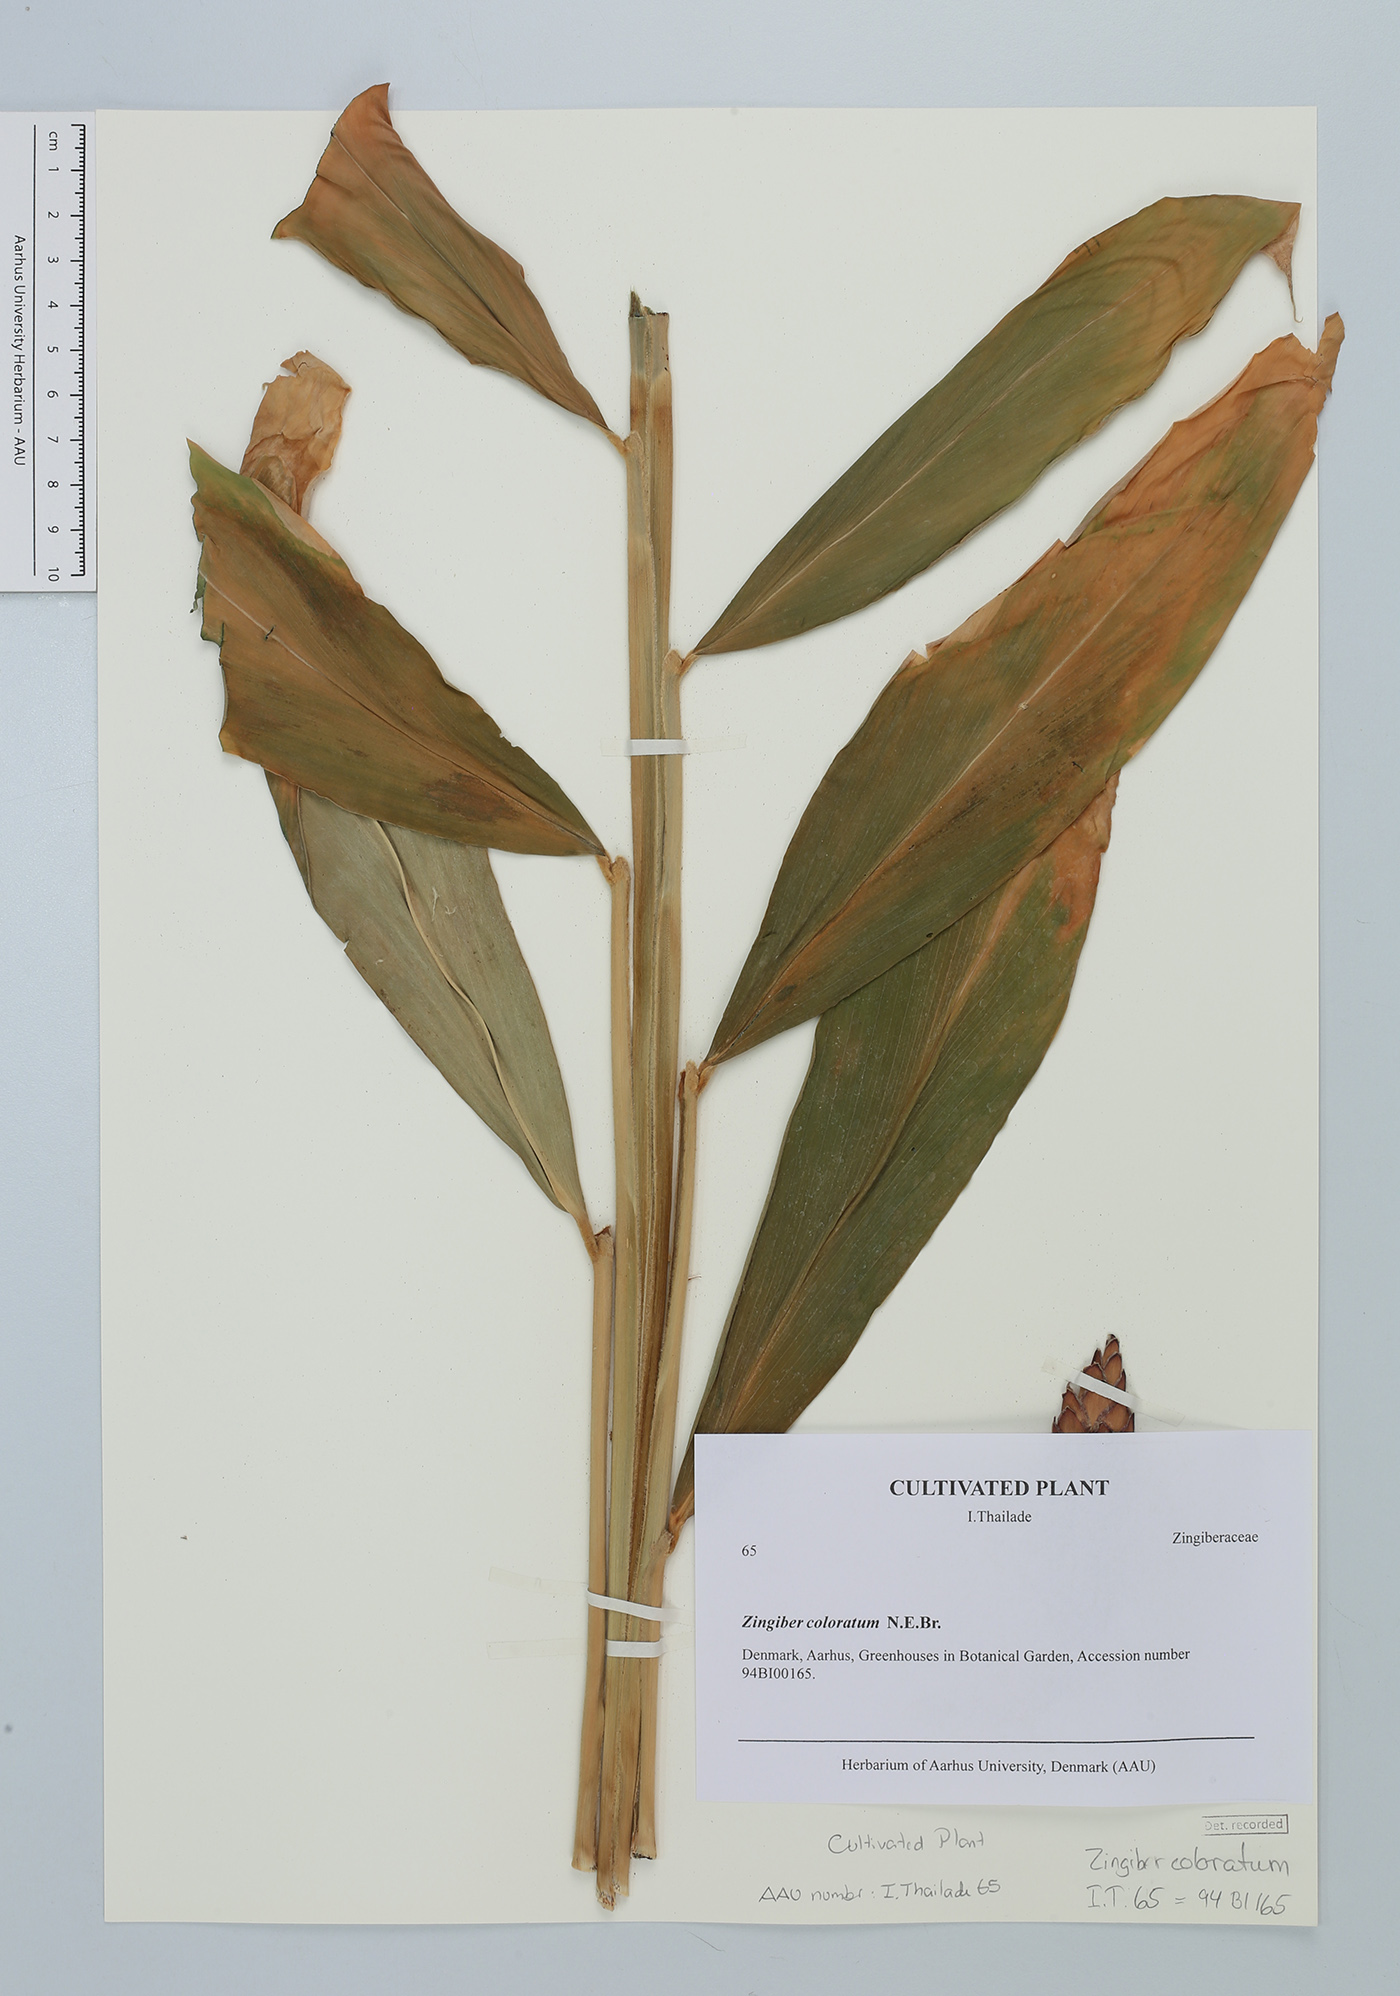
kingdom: Plantae
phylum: Tracheophyta
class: Liliopsida
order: Zingiberales
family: Zingiberaceae
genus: Zingiber
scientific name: Zingiber coloratum
